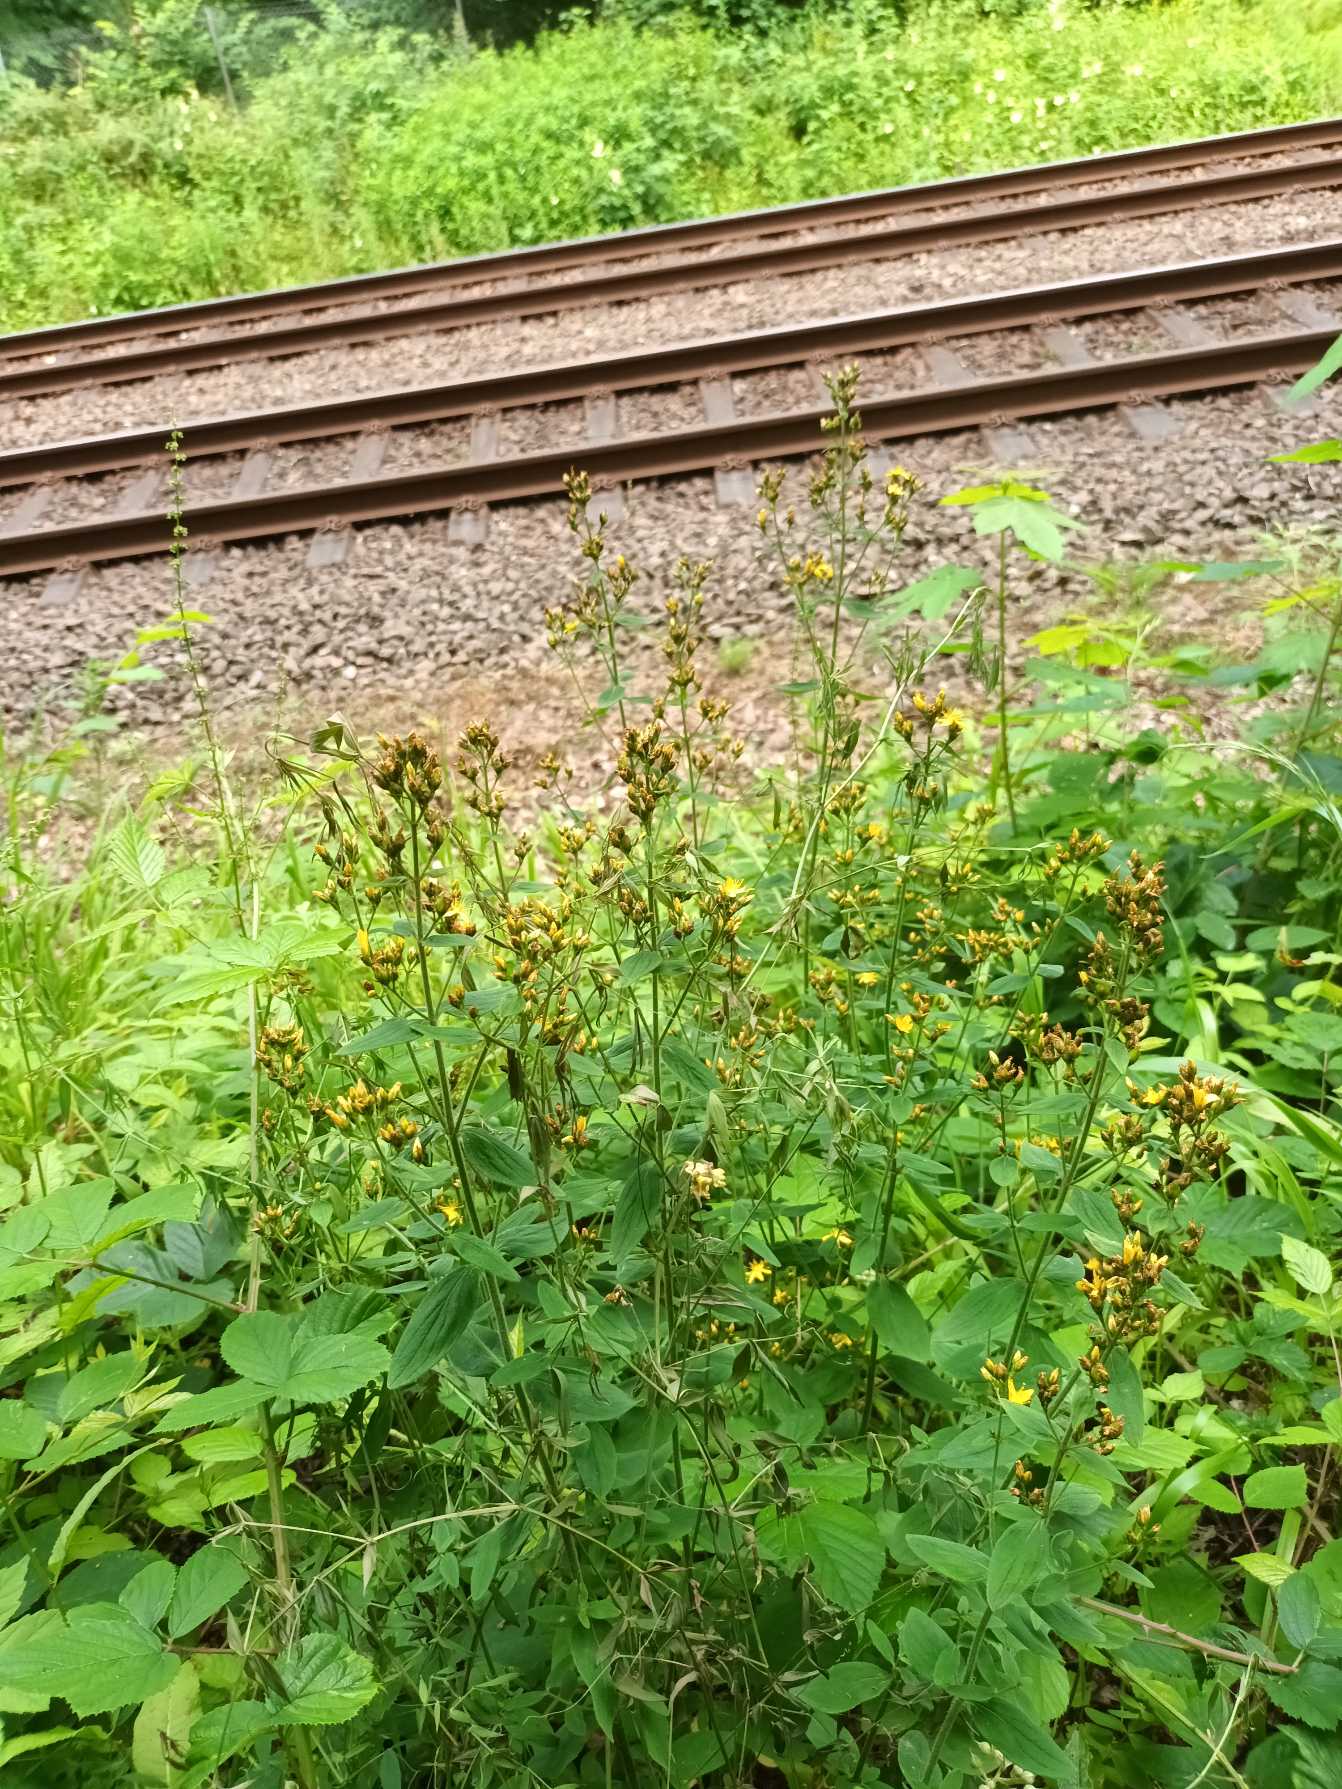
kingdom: Plantae
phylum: Tracheophyta
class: Magnoliopsida
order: Malpighiales
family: Hypericaceae
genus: Hypericum
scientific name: Hypericum hirsutum
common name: Lådden perikon
